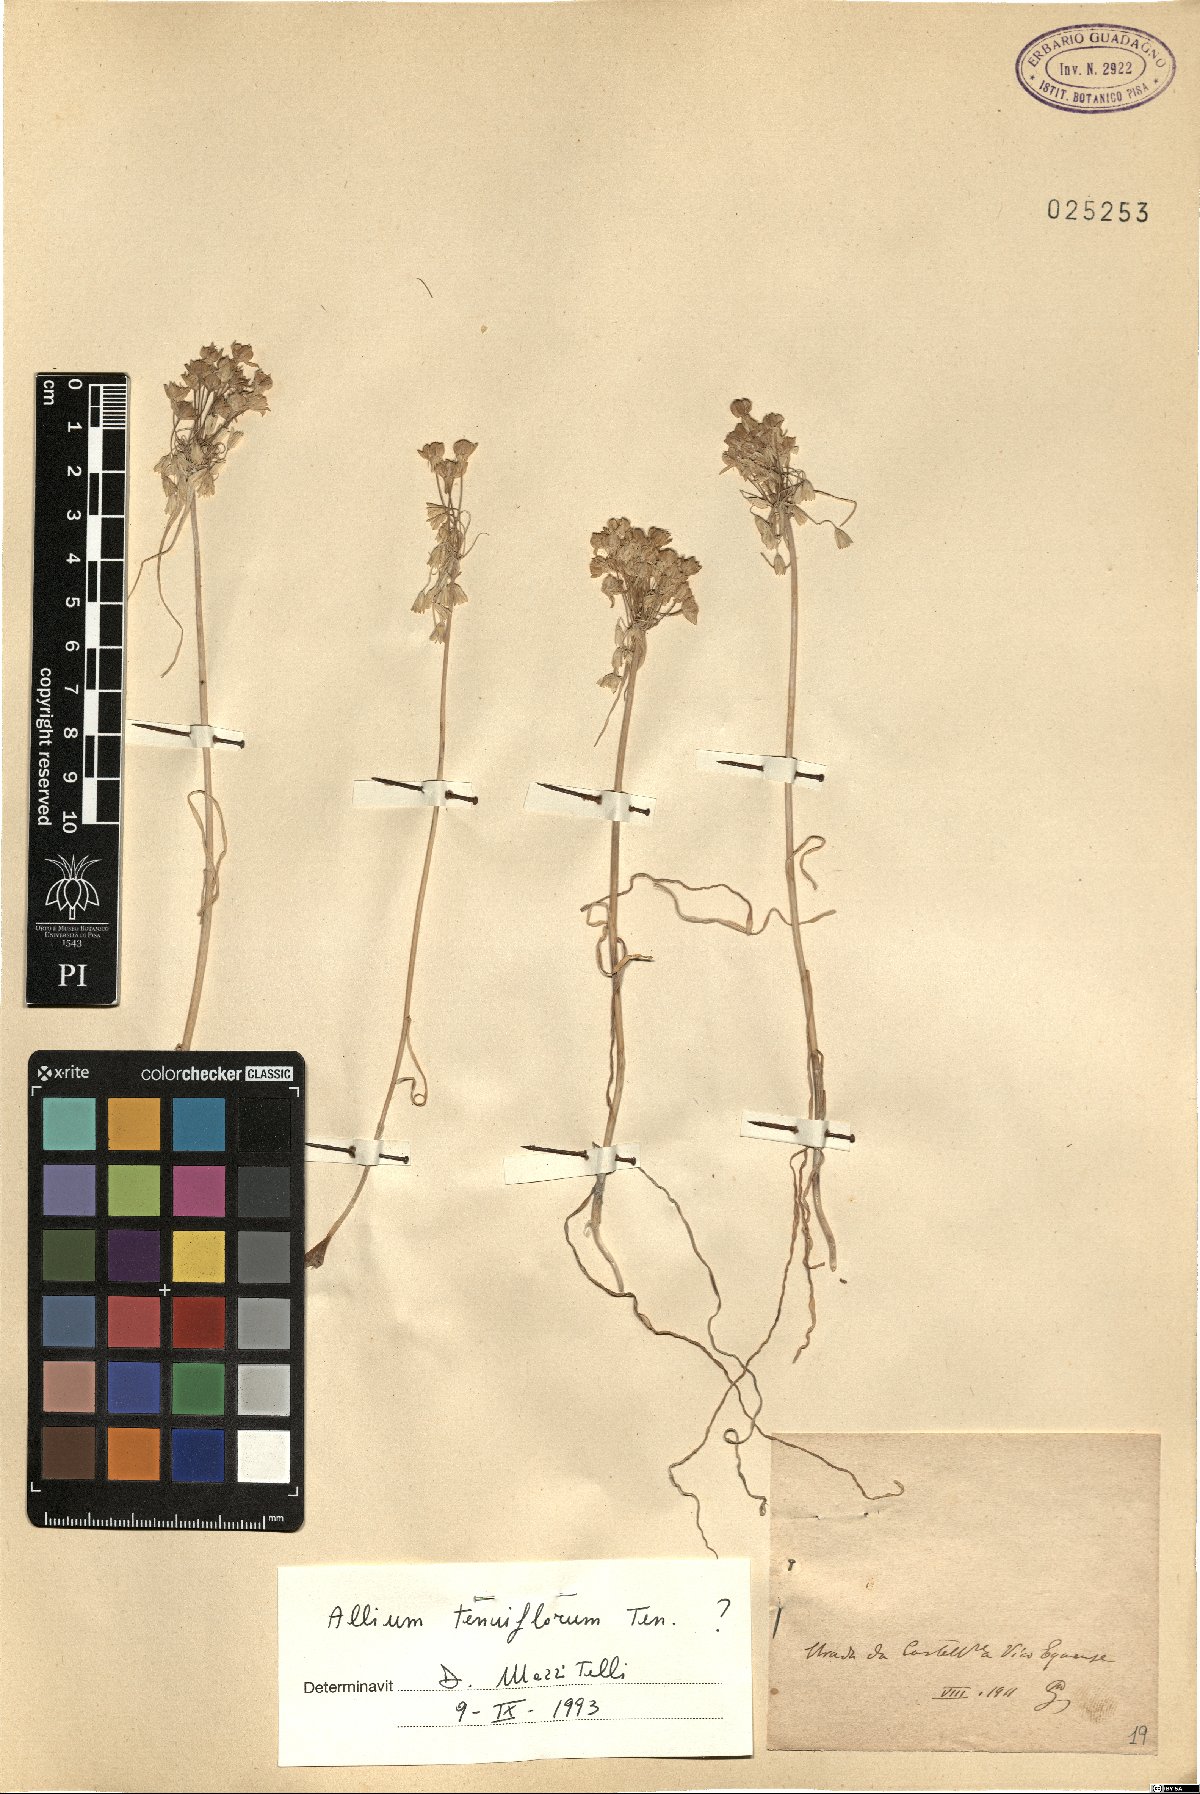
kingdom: Plantae
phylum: Tracheophyta
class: Liliopsida
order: Asparagales
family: Amaryllidaceae
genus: Allium
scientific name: Allium tenuiflorum
